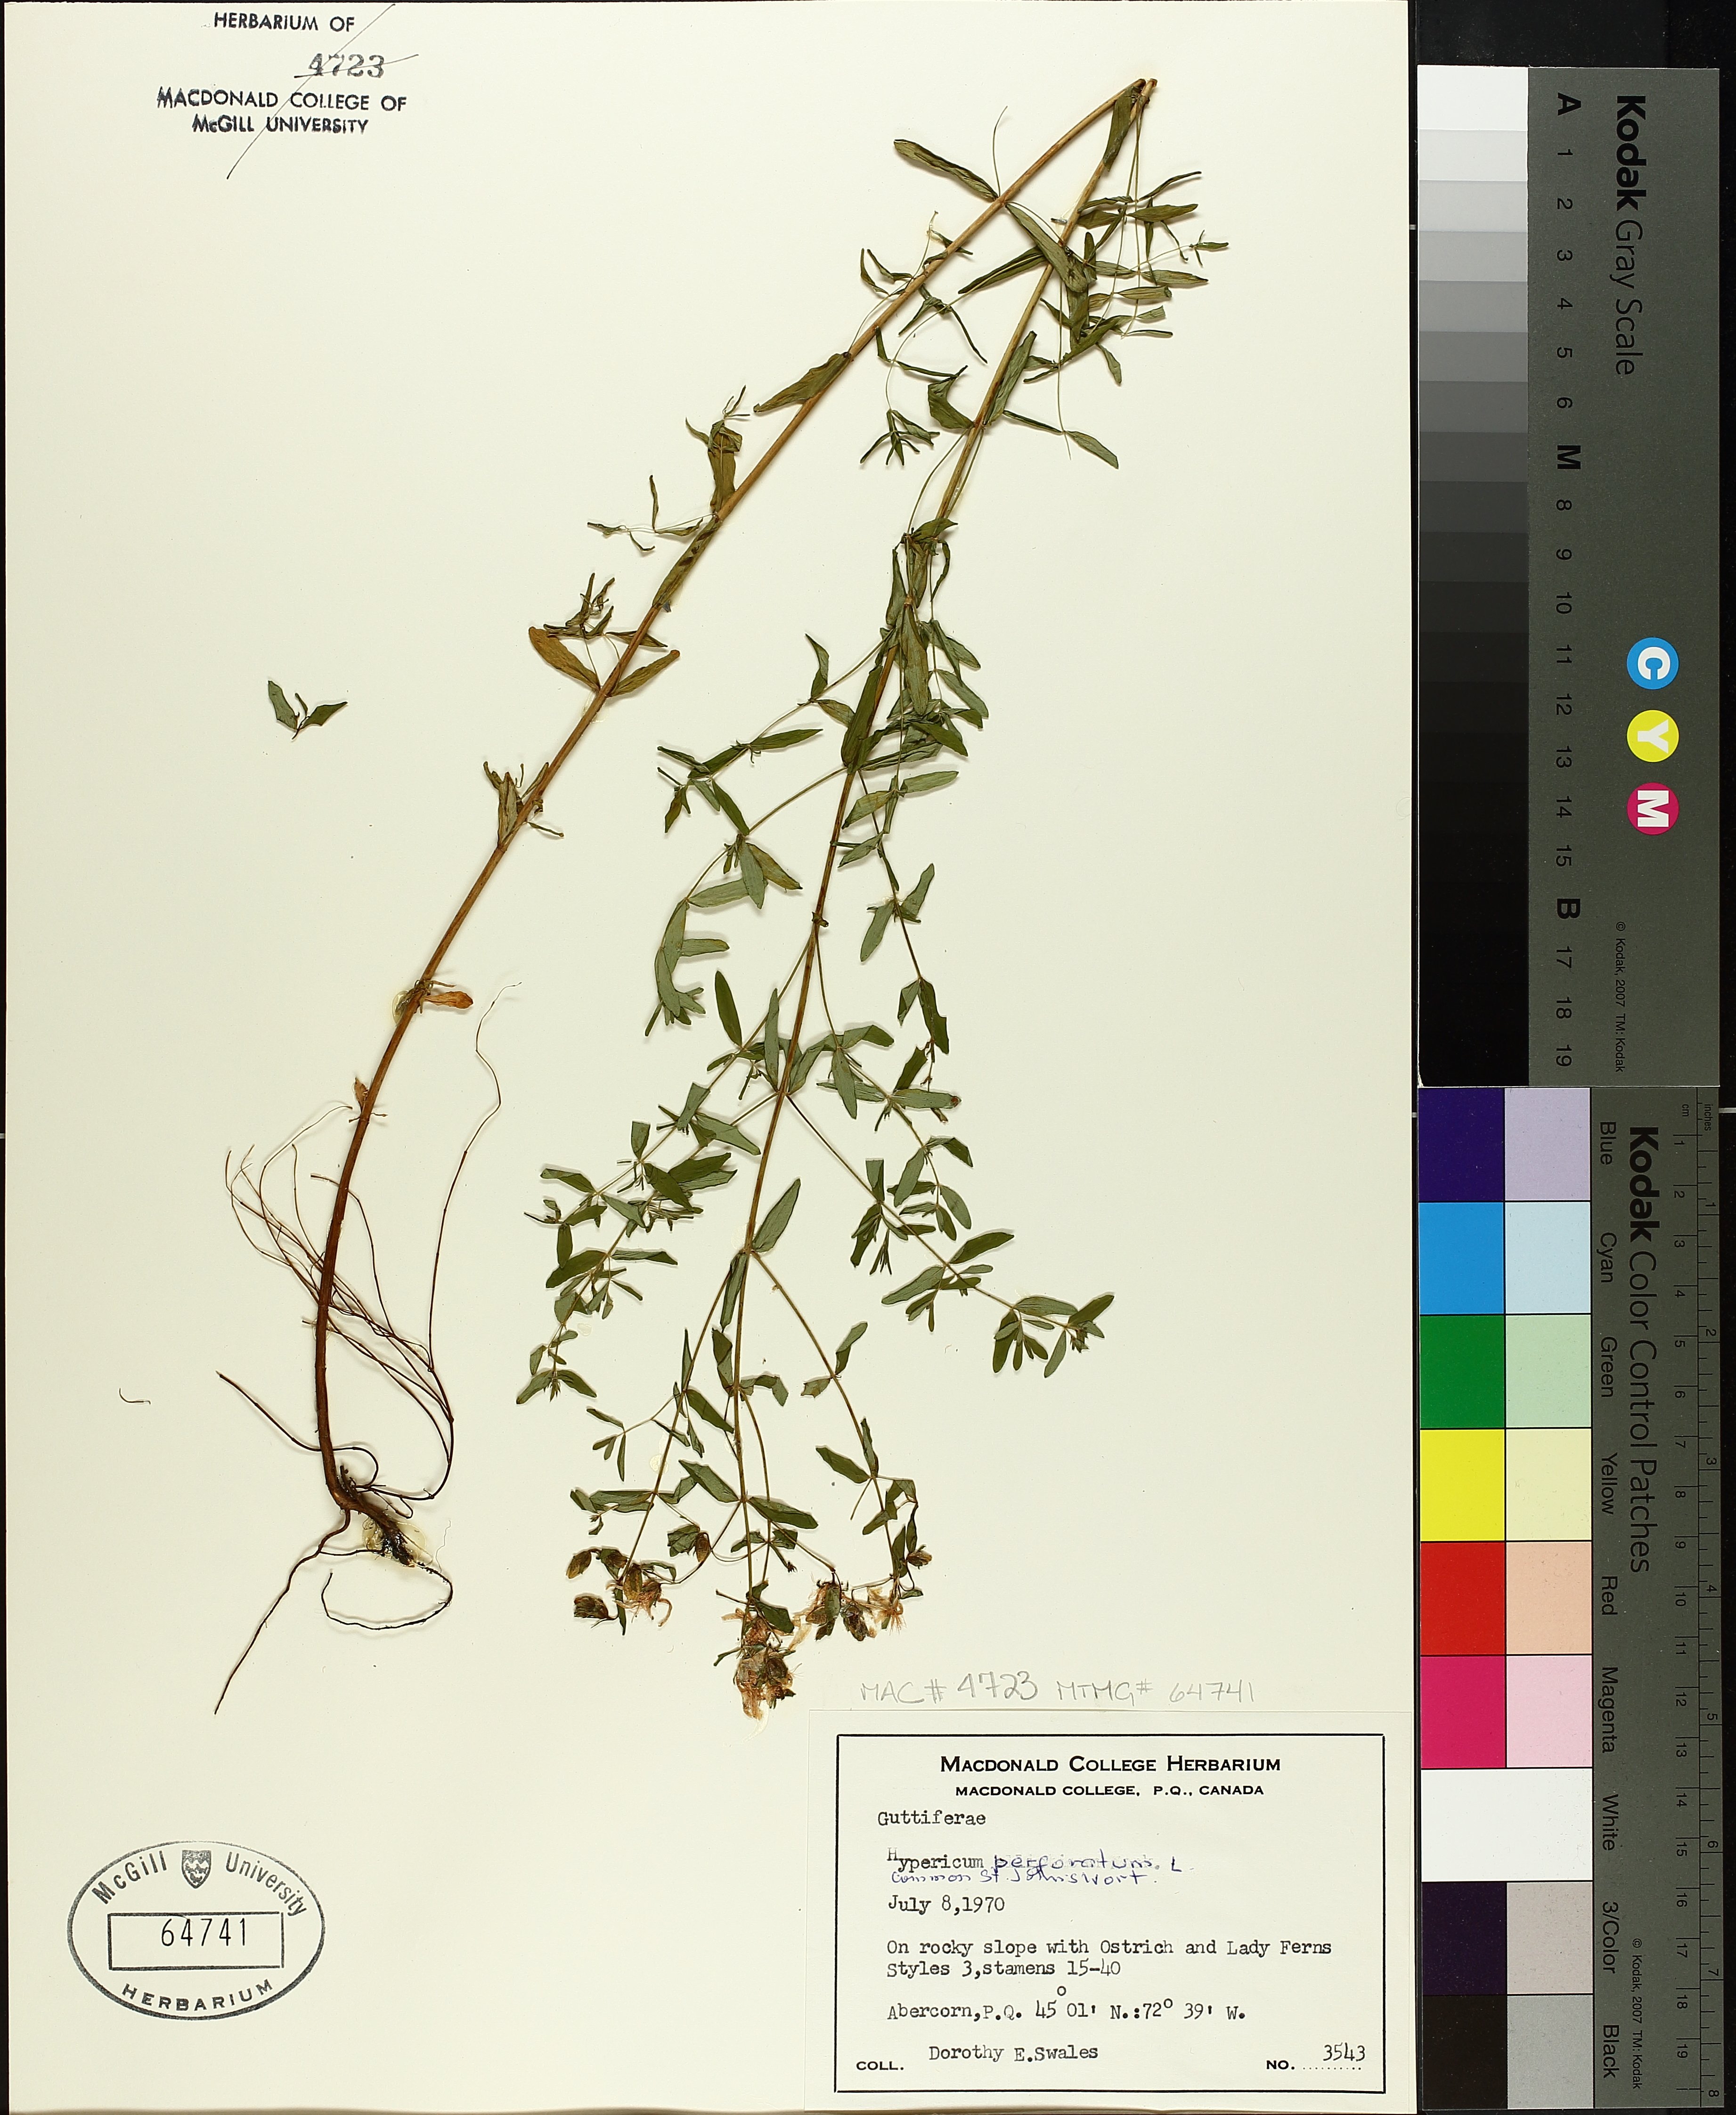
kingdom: Plantae
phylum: Tracheophyta
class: Magnoliopsida
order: Malpighiales
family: Hypericaceae
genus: Hypericum
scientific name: Hypericum perforatum
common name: Common st. johnswort
